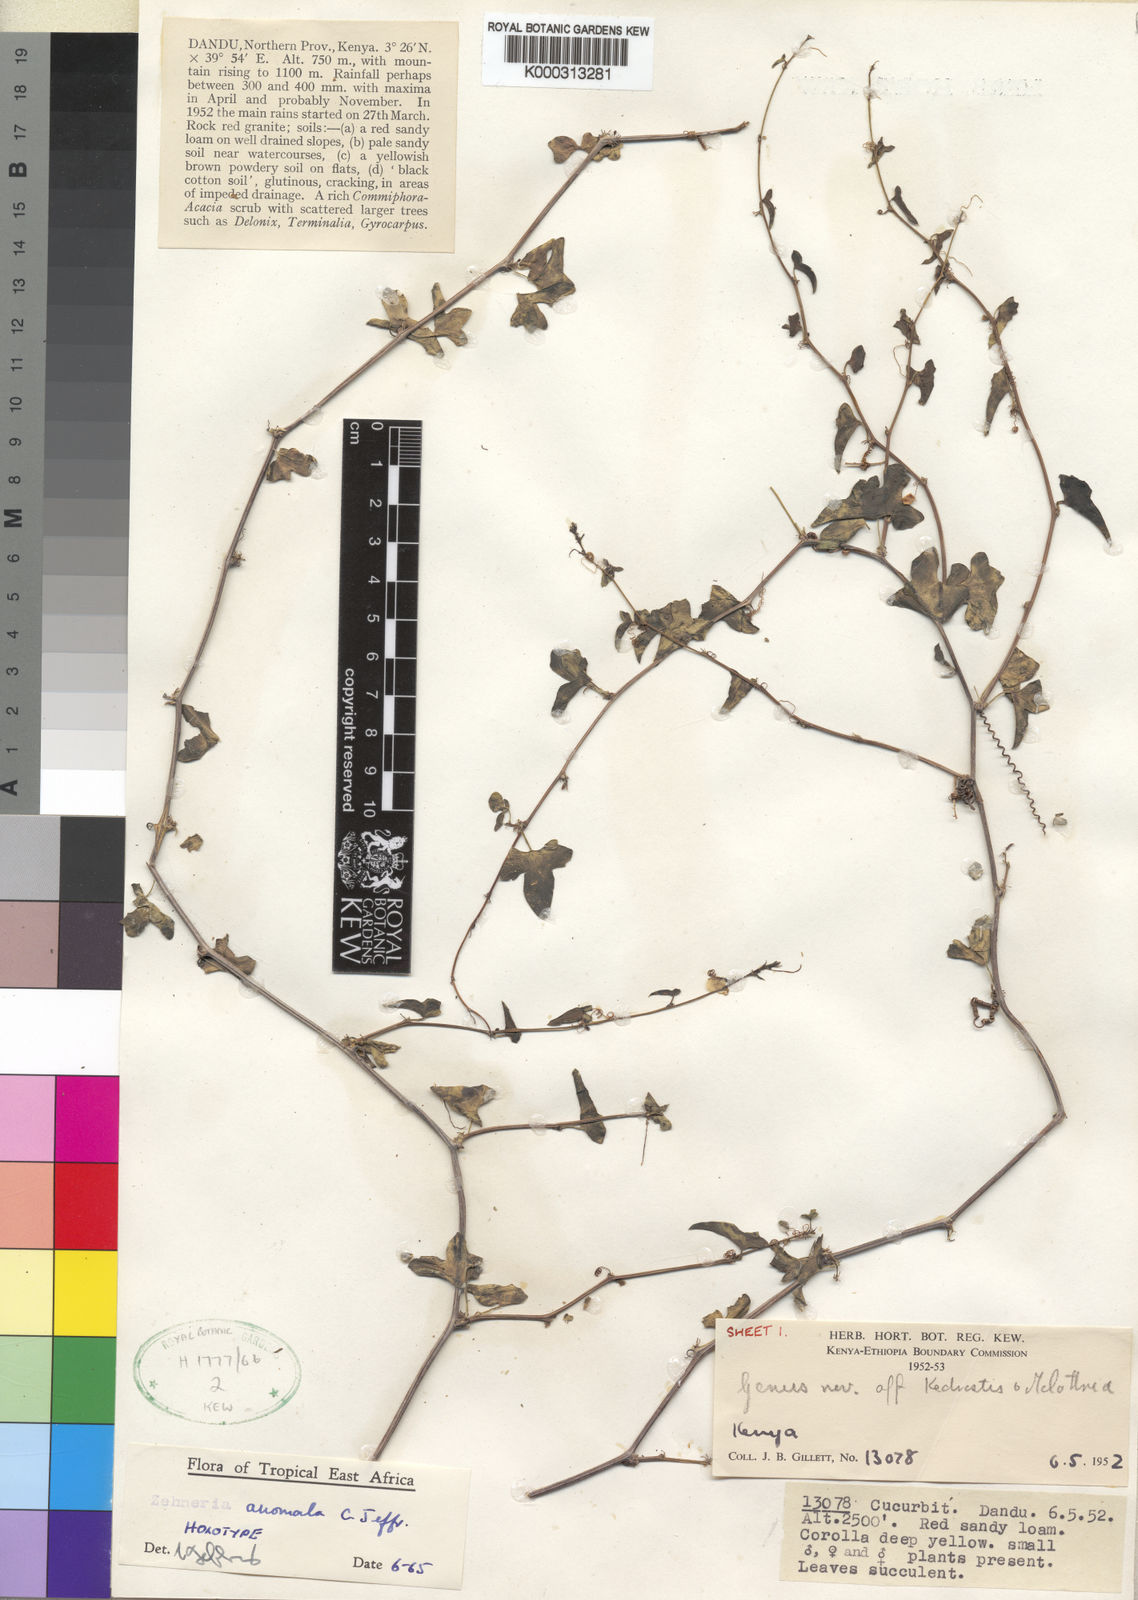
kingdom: Plantae
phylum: Tracheophyta
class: Magnoliopsida
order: Cucurbitales
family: Cucurbitaceae
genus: Zehneria
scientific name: Zehneria anomala
